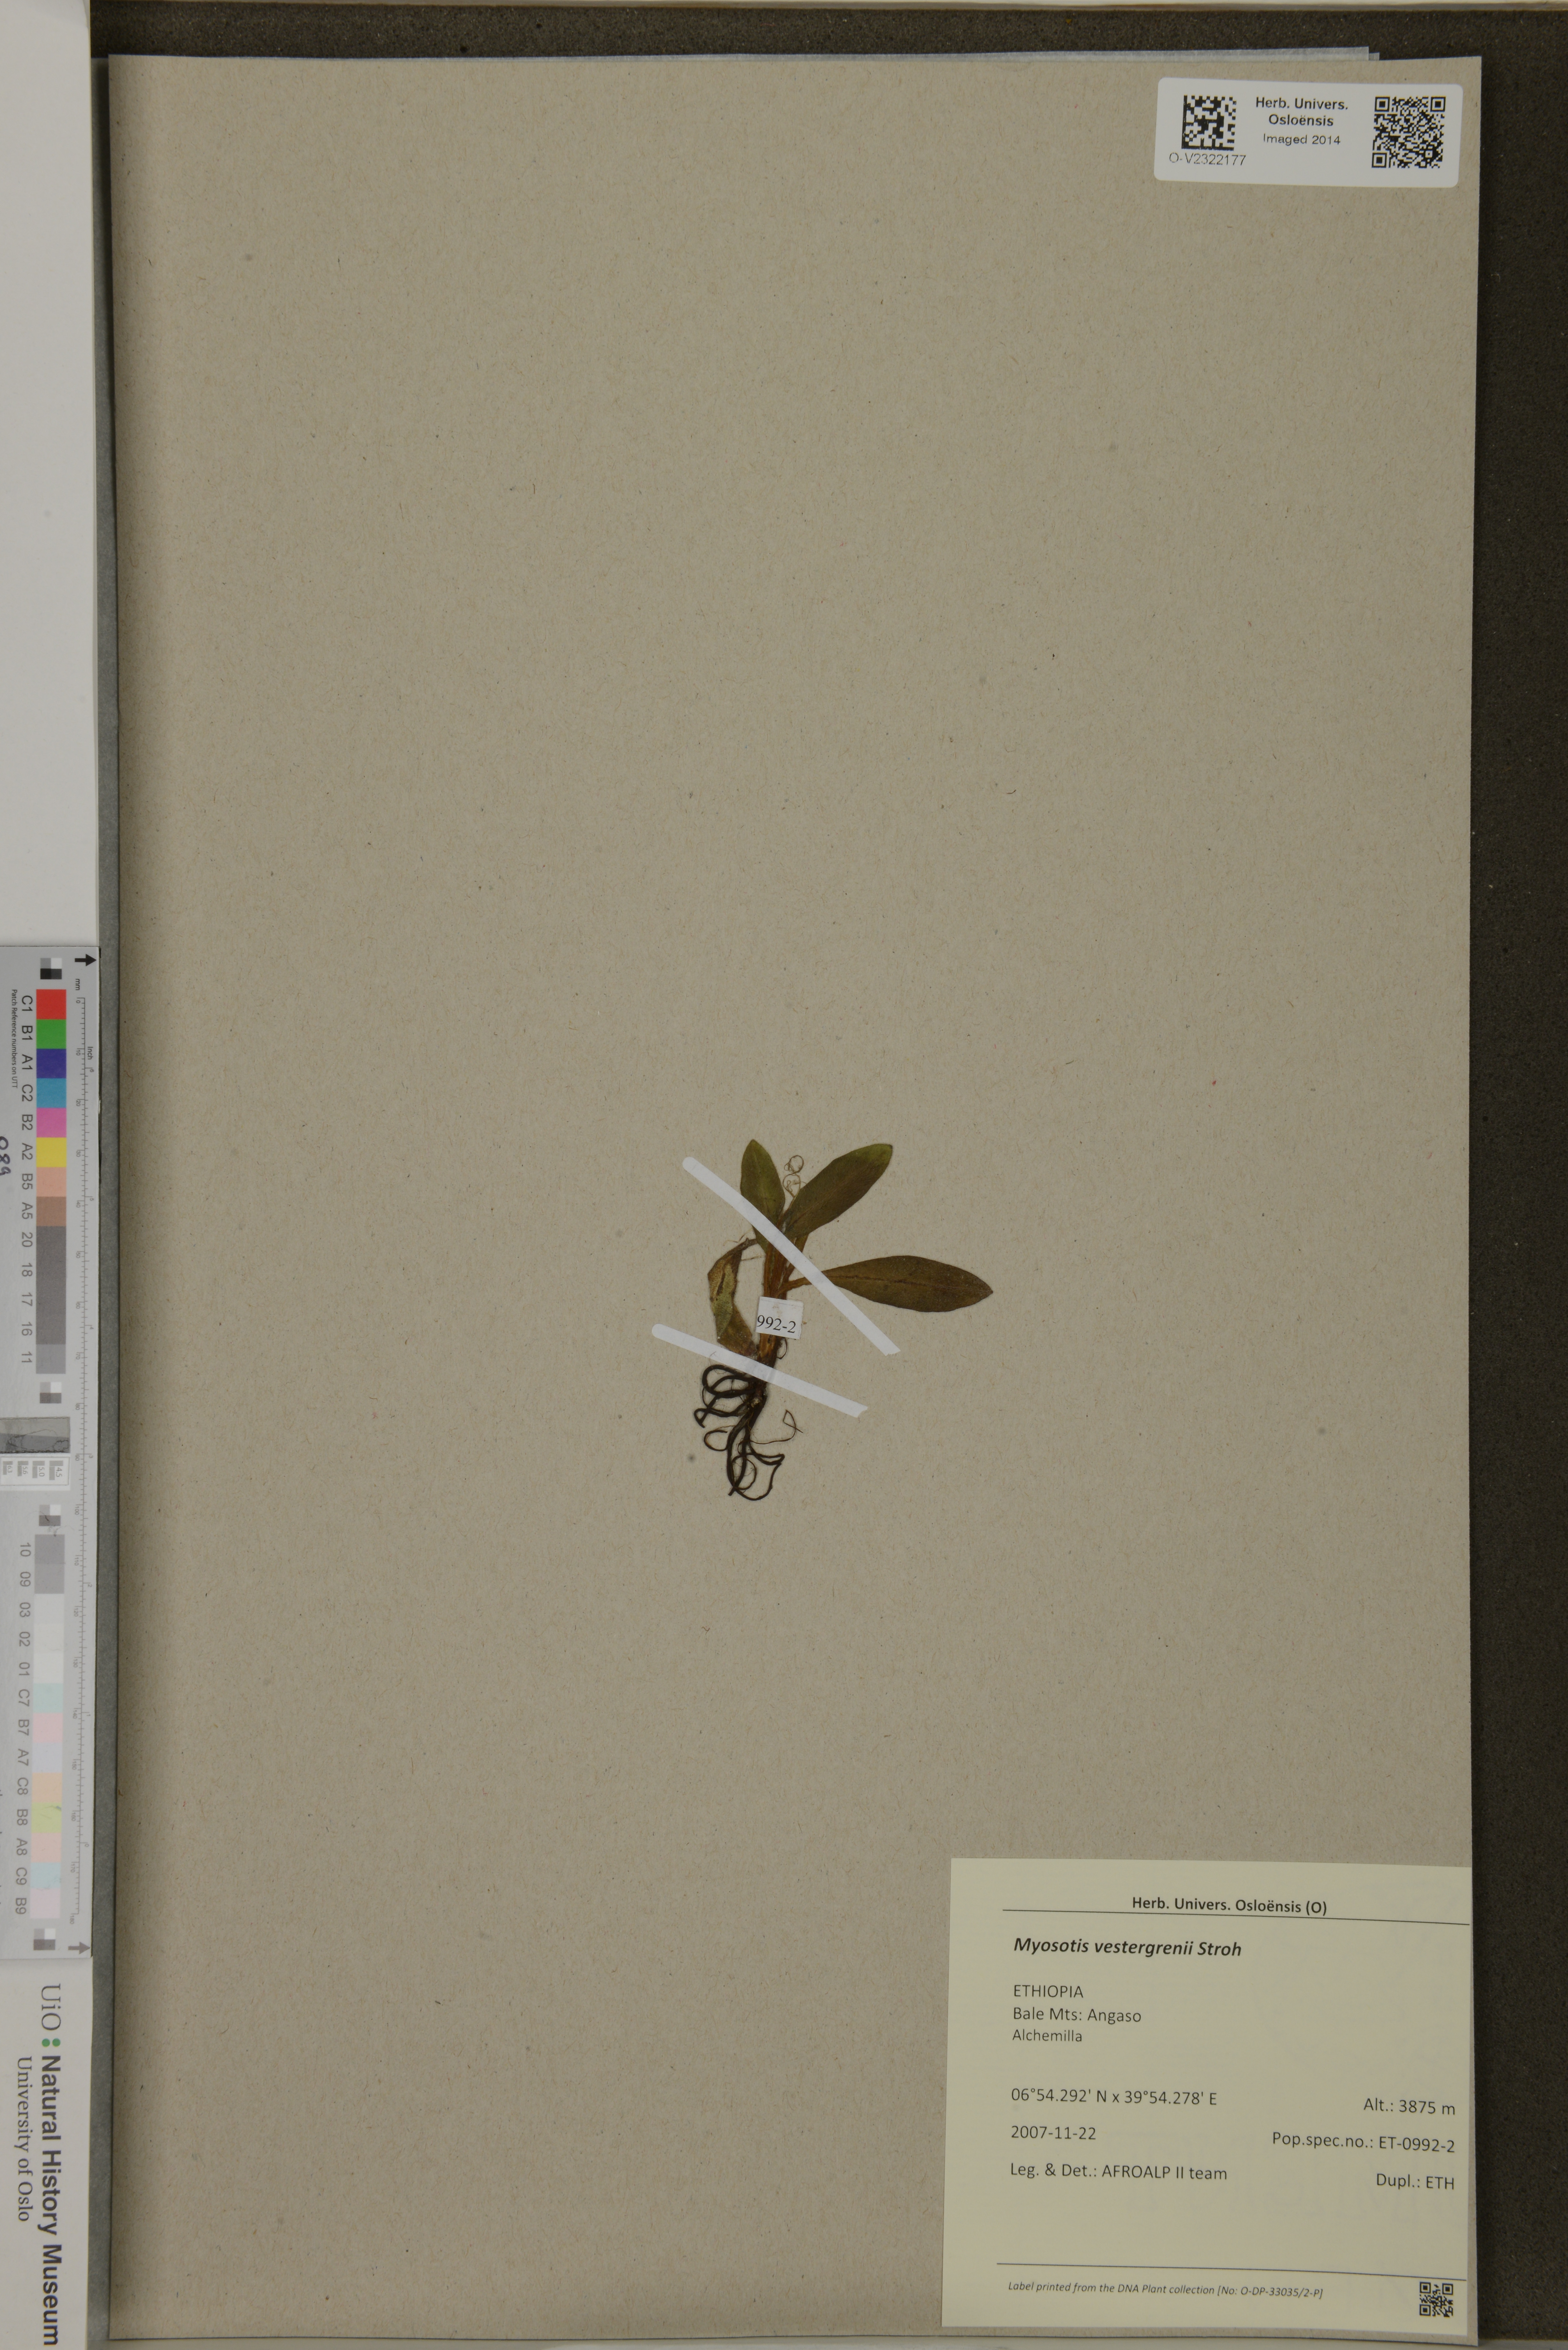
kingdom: Plantae
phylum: Tracheophyta
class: Magnoliopsida
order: Boraginales
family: Boraginaceae
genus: Myosotis
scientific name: Myosotis vestergrenii
